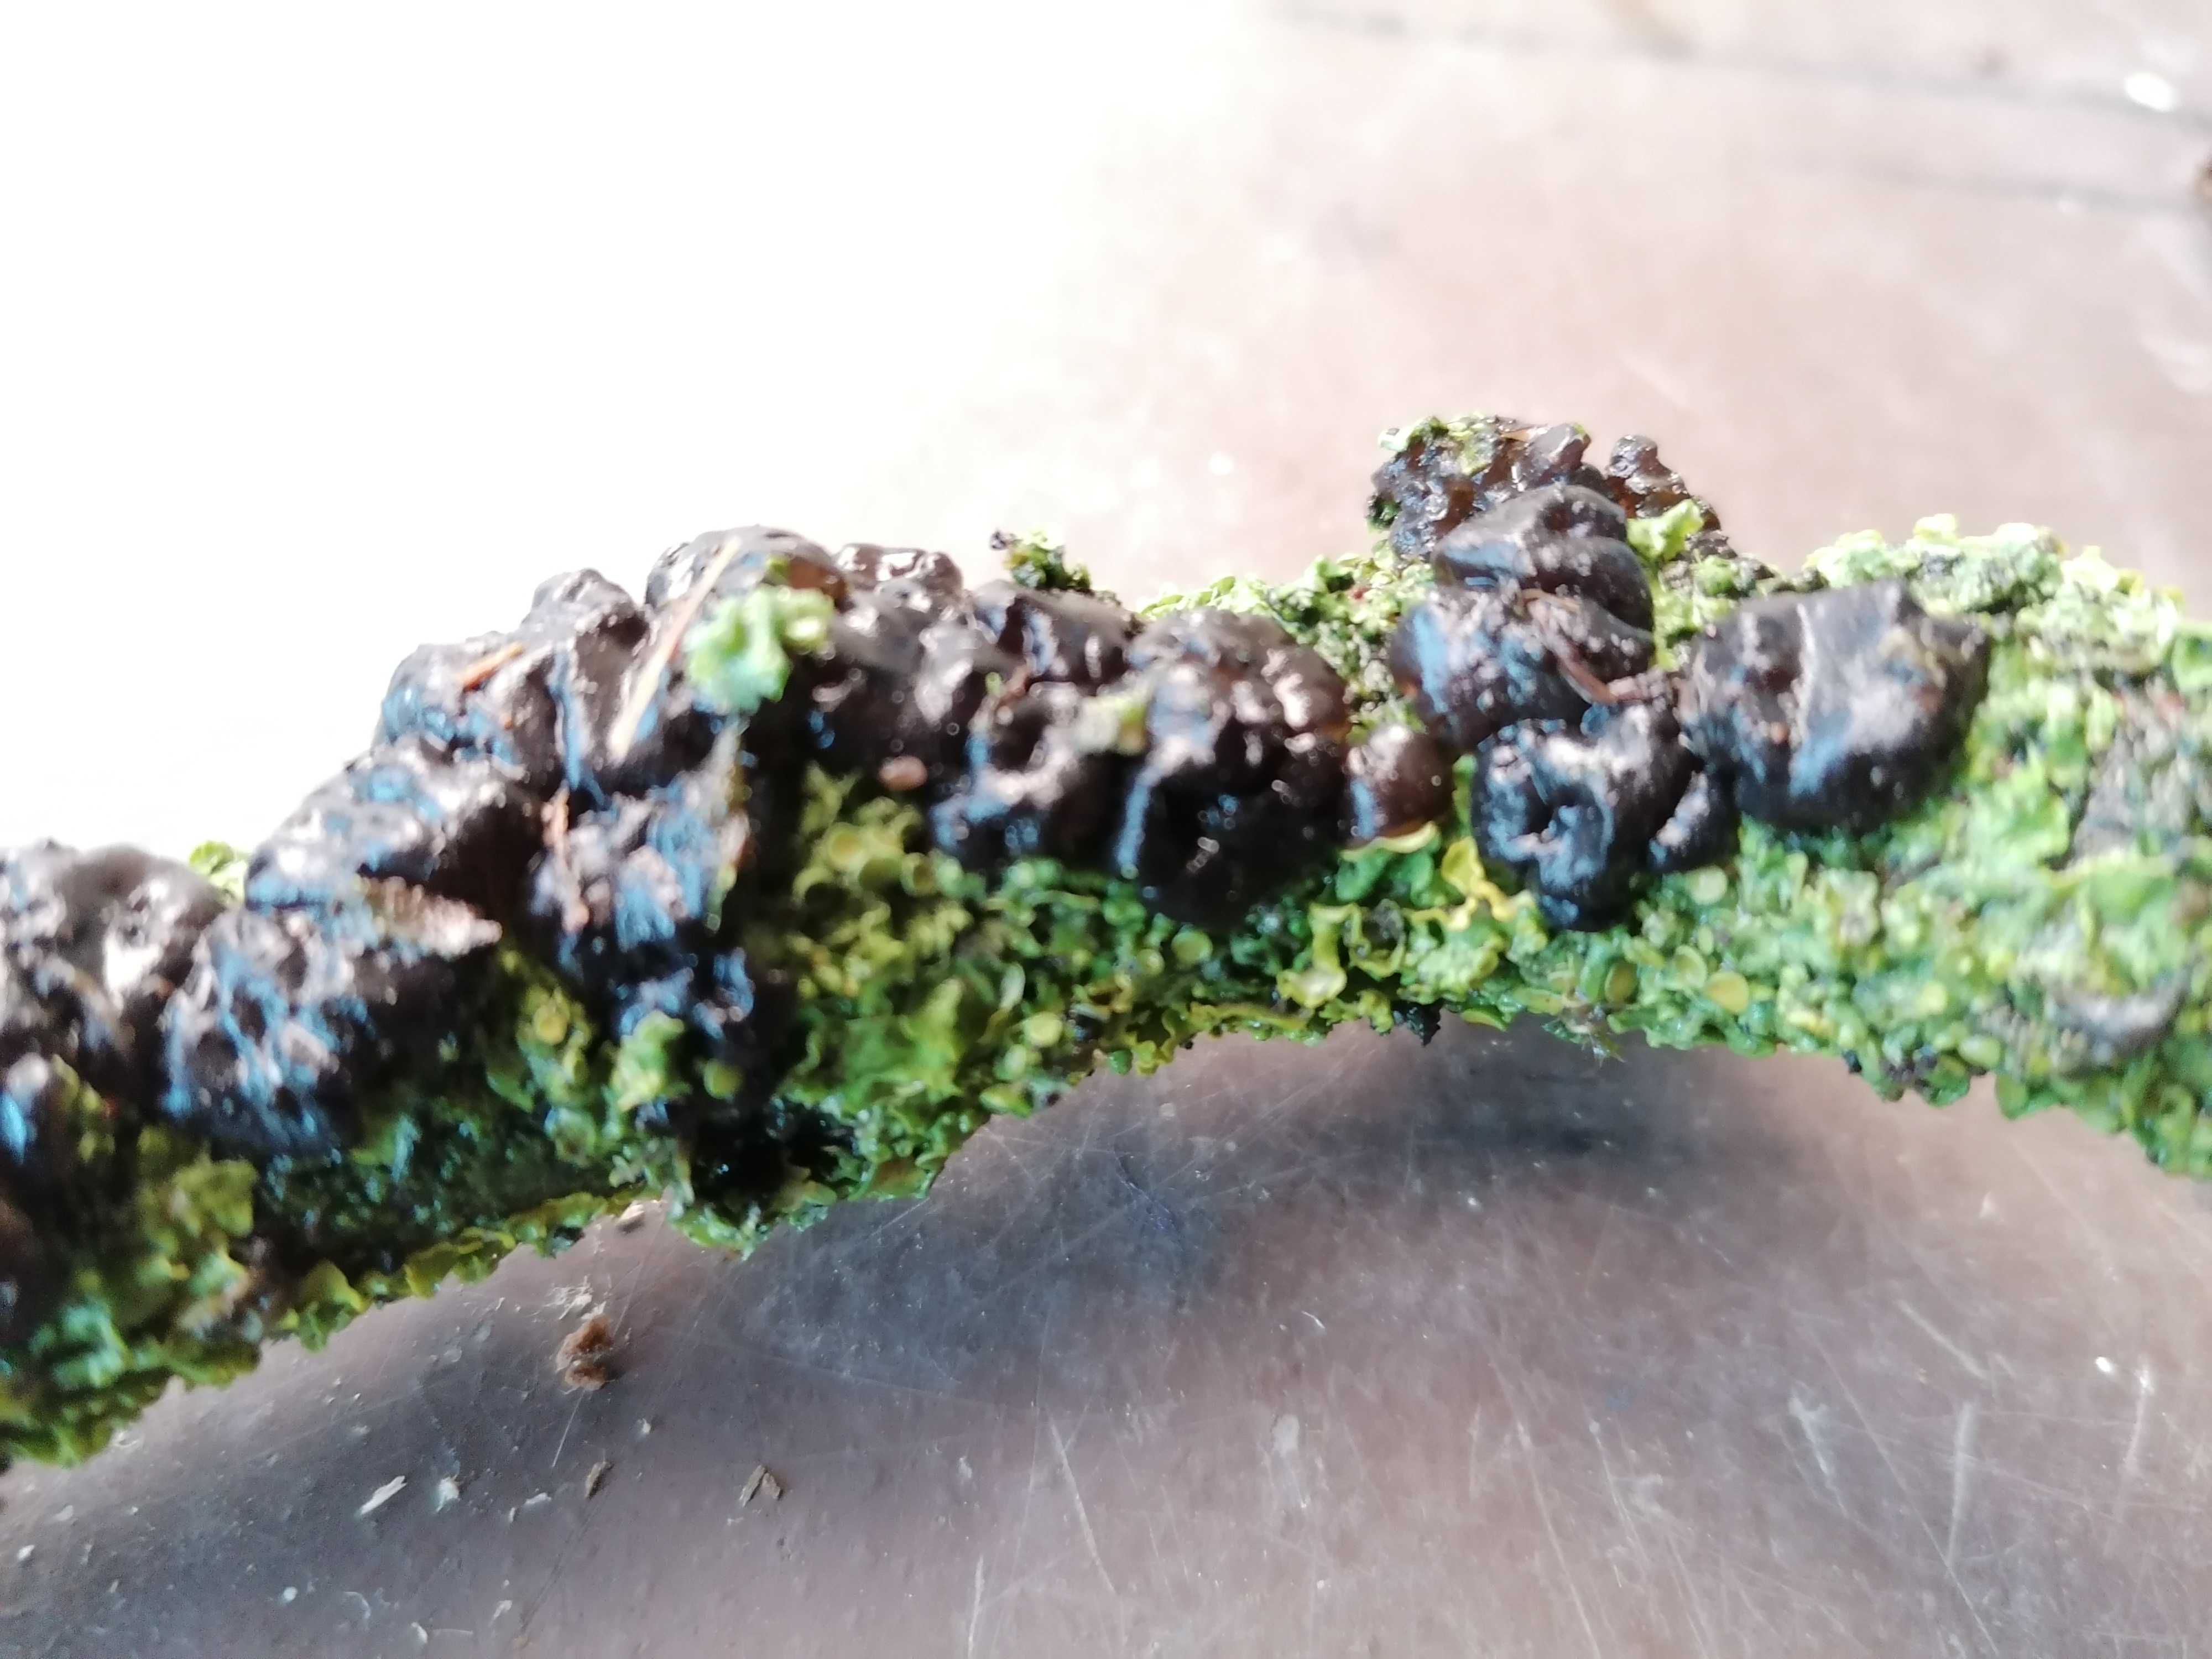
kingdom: Fungi
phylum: Basidiomycota
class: Agaricomycetes
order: Auriculariales
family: Auriculariaceae
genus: Exidia
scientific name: Exidia nigricans
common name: almindelig bævretop
